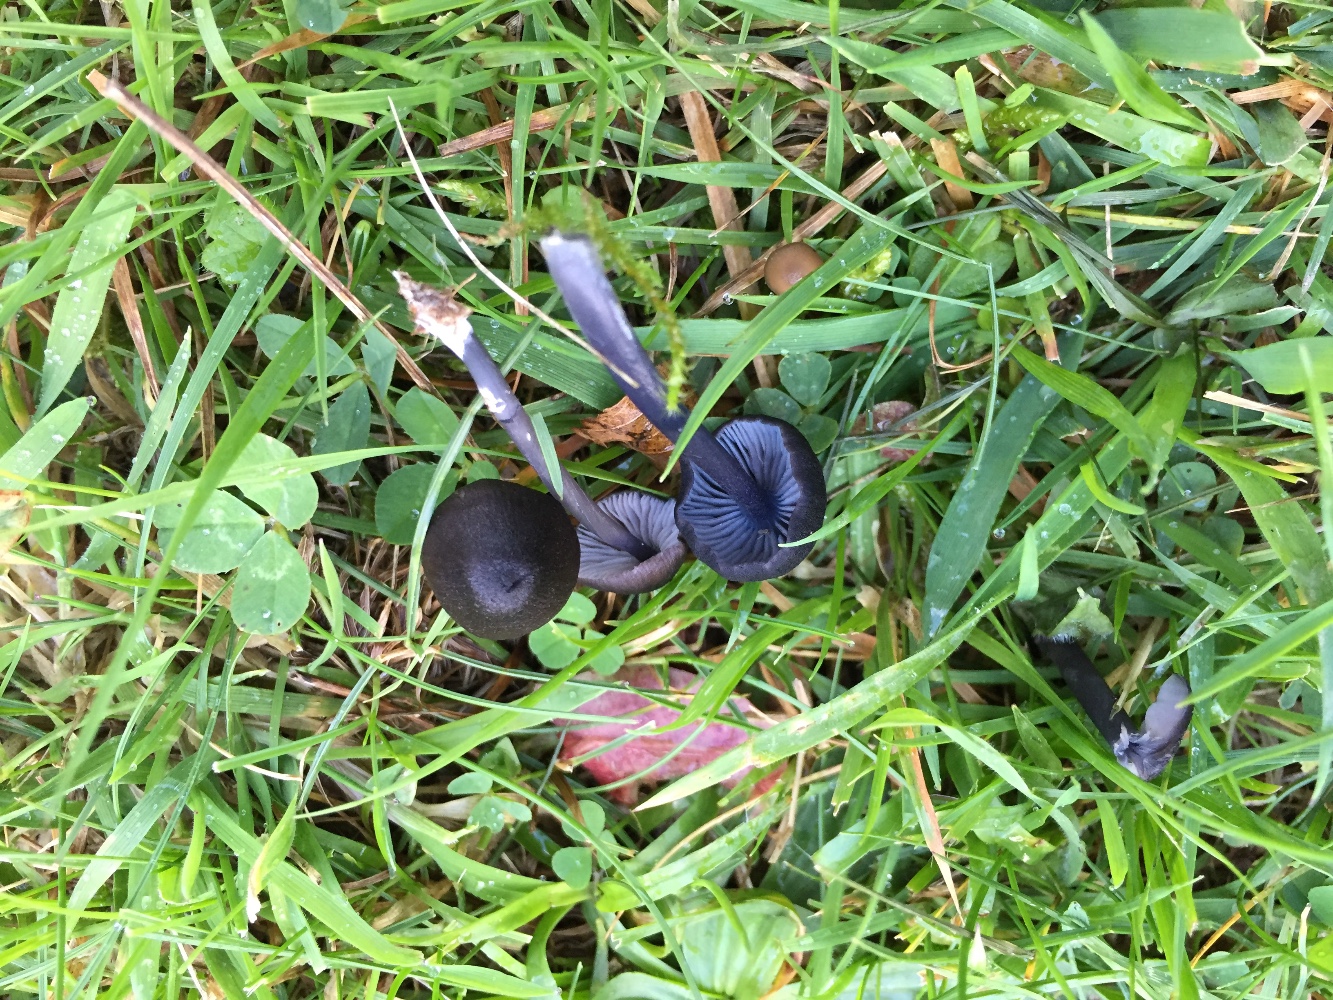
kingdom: Fungi
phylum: Basidiomycota
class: Agaricomycetes
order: Agaricales
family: Entolomataceae
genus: Entoloma
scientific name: Entoloma chalybeum
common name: blåbladet rødblad
